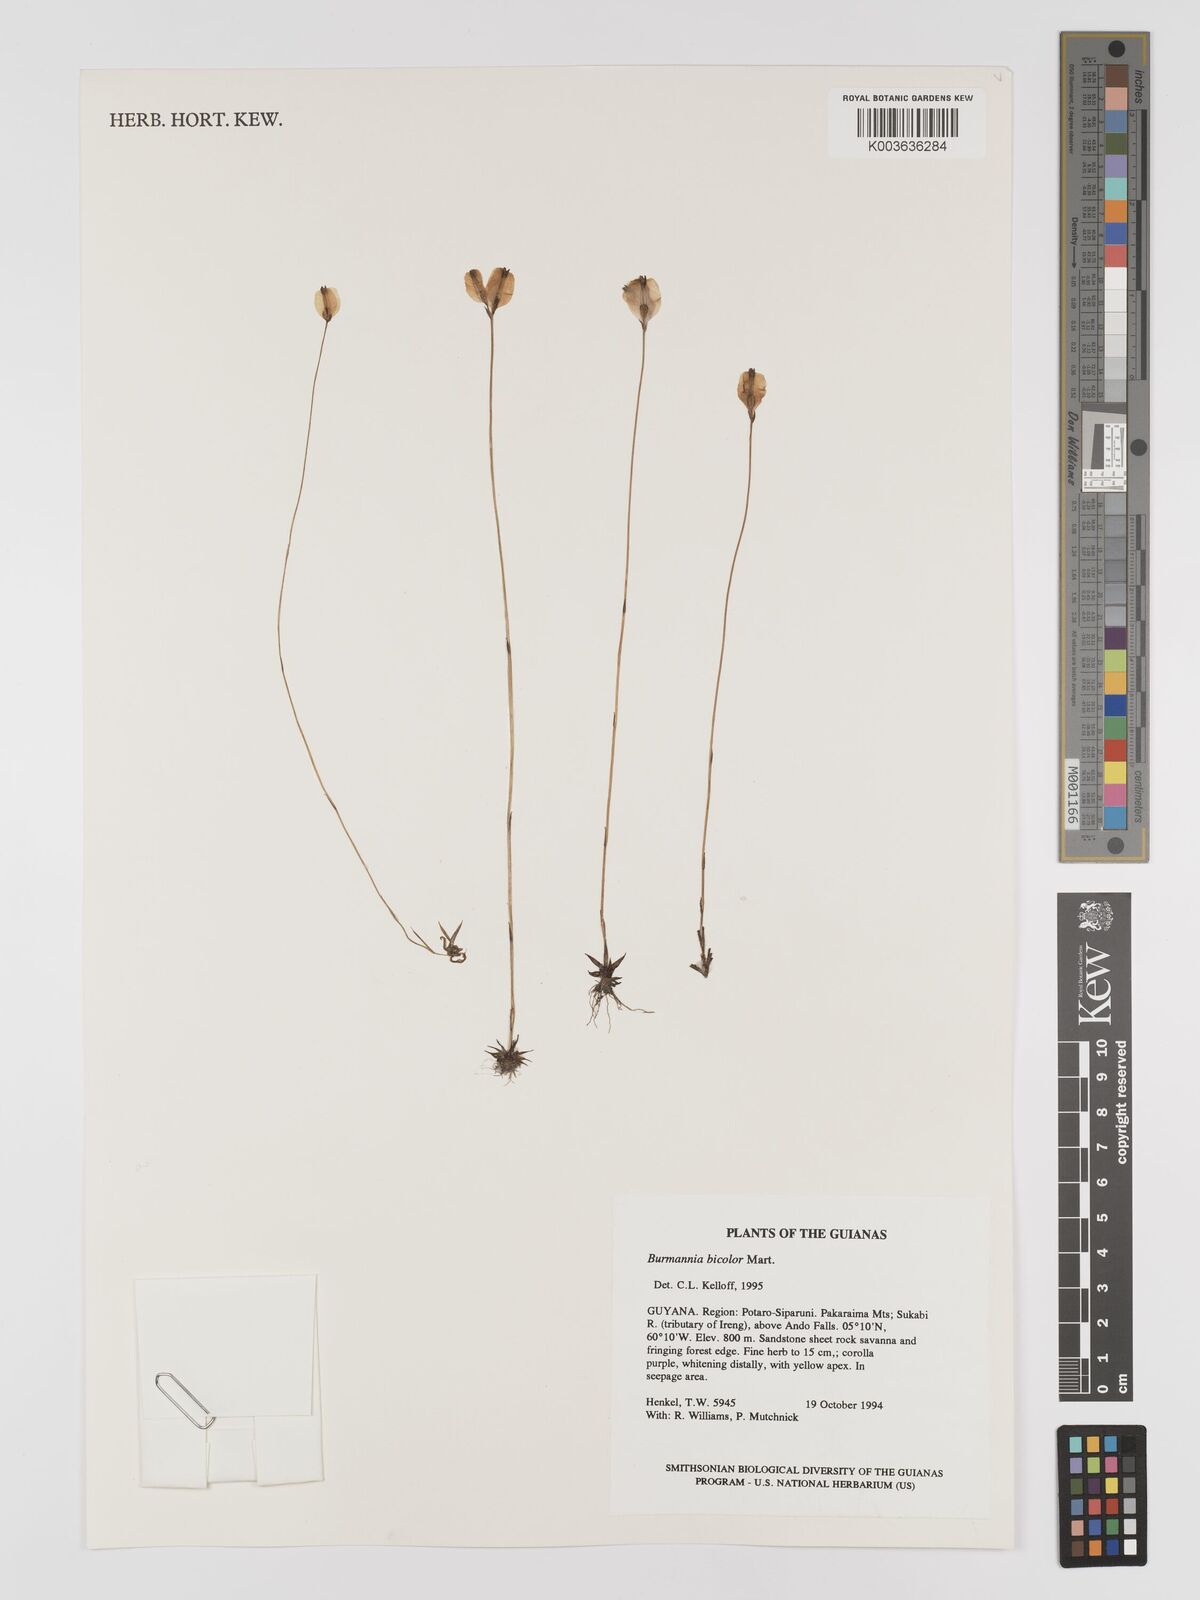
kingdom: Plantae
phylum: Tracheophyta
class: Liliopsida
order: Dioscoreales
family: Burmanniaceae
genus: Burmannia
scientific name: Burmannia bicolor
